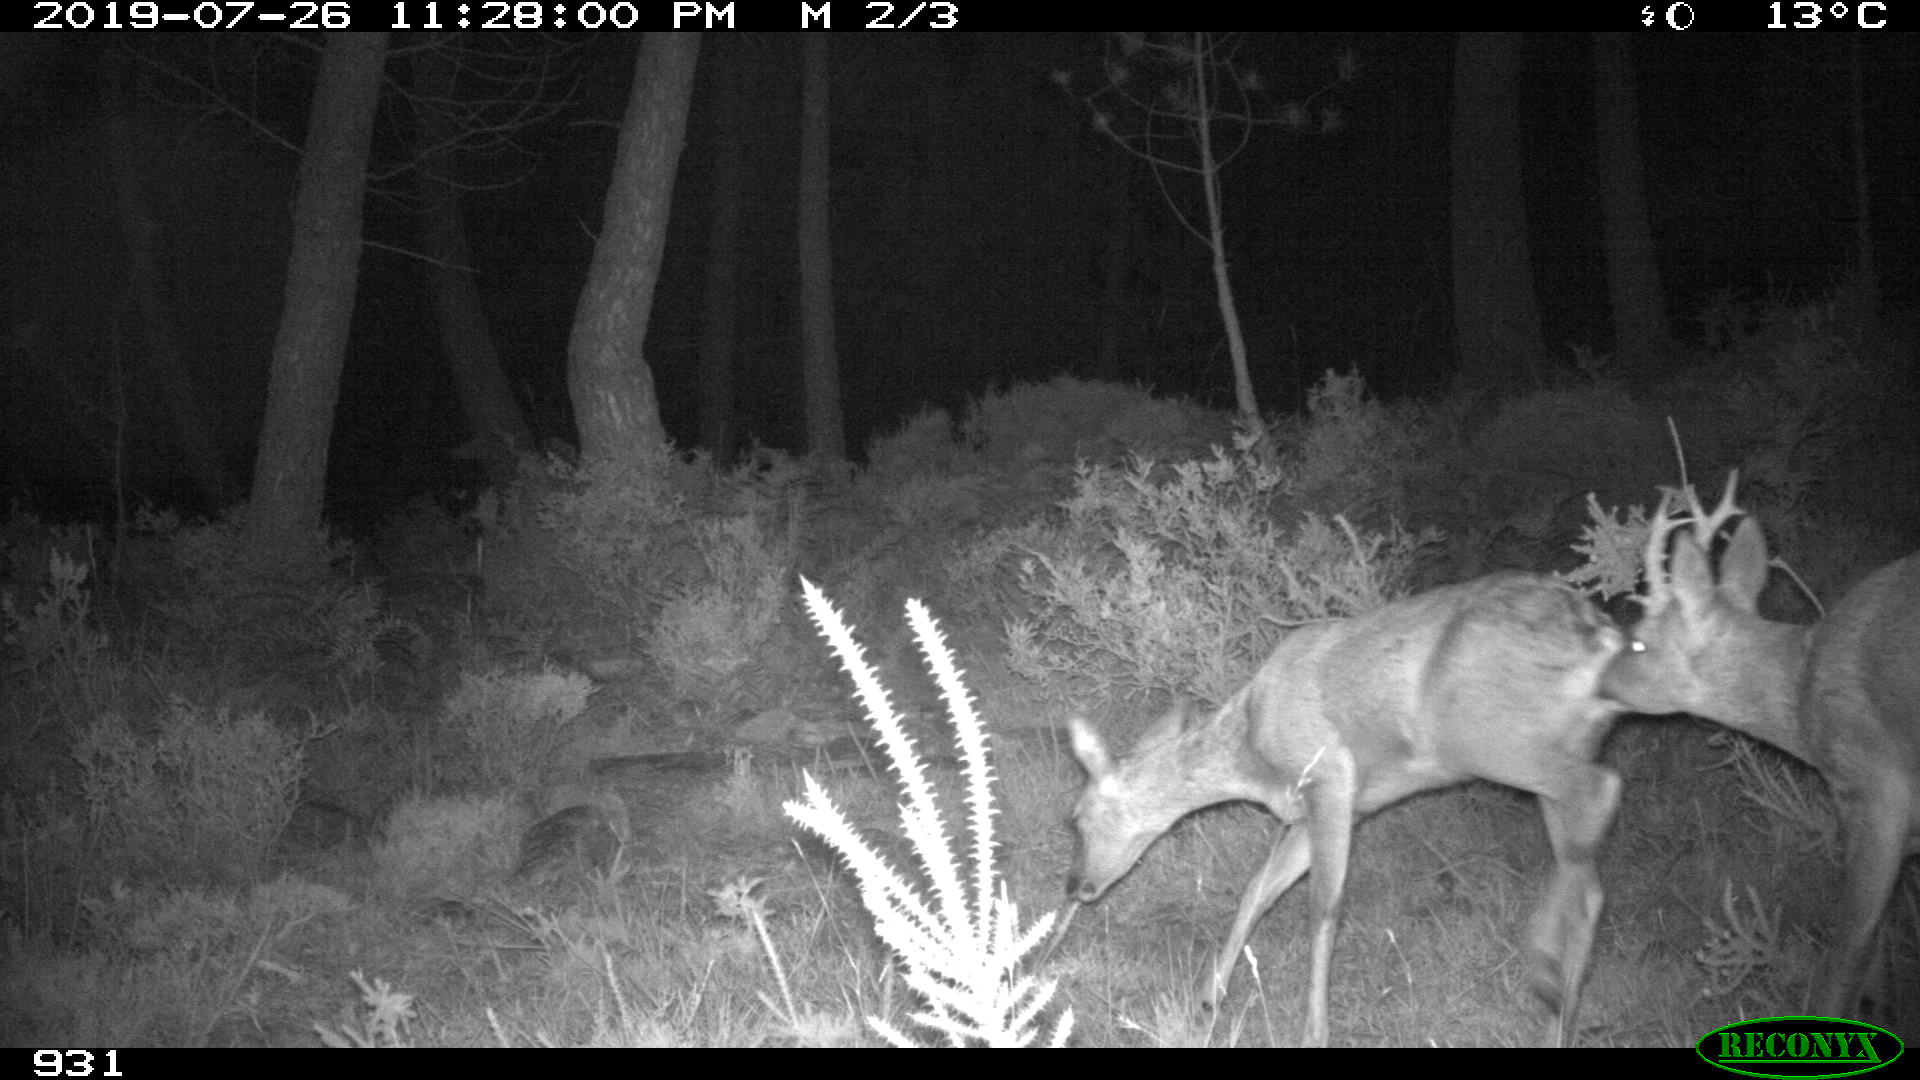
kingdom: Animalia
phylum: Chordata
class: Mammalia
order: Artiodactyla
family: Cervidae
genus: Capreolus
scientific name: Capreolus capreolus
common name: Western roe deer
